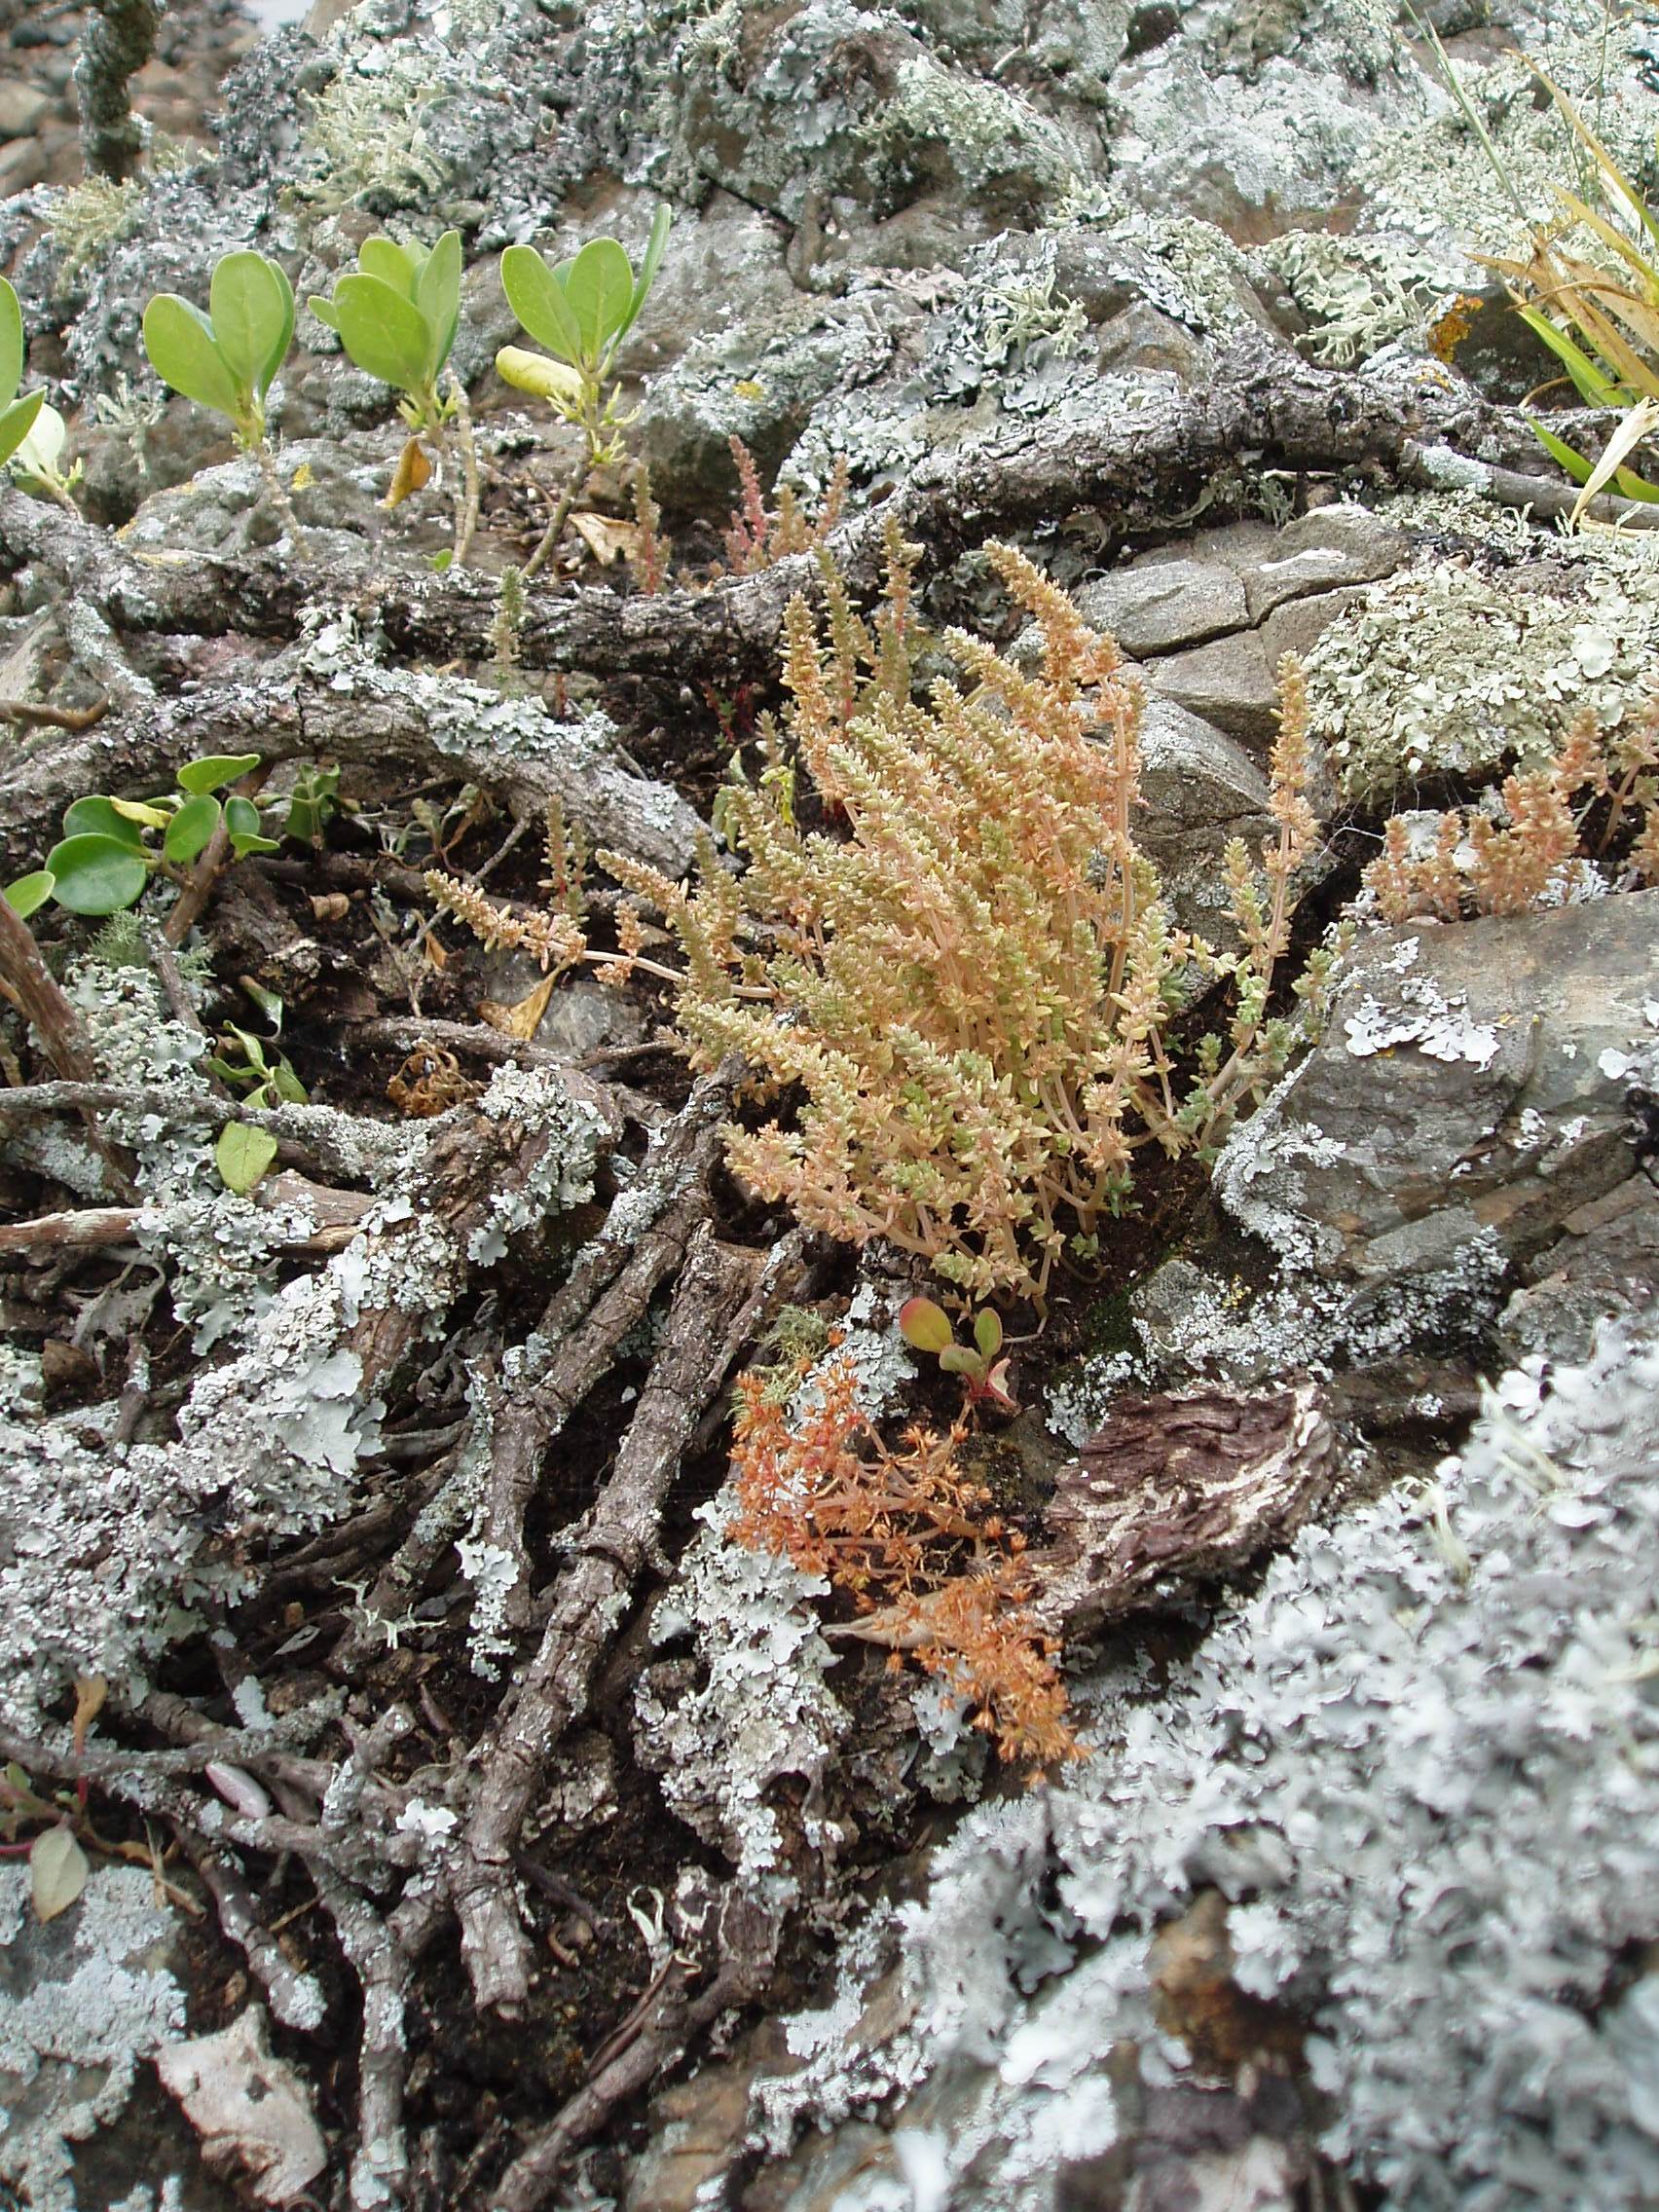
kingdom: Plantae
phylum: Tracheophyta
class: Magnoliopsida
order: Saxifragales
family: Crassulaceae
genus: Crassula
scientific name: Crassula colligata
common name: Pygmyweed
